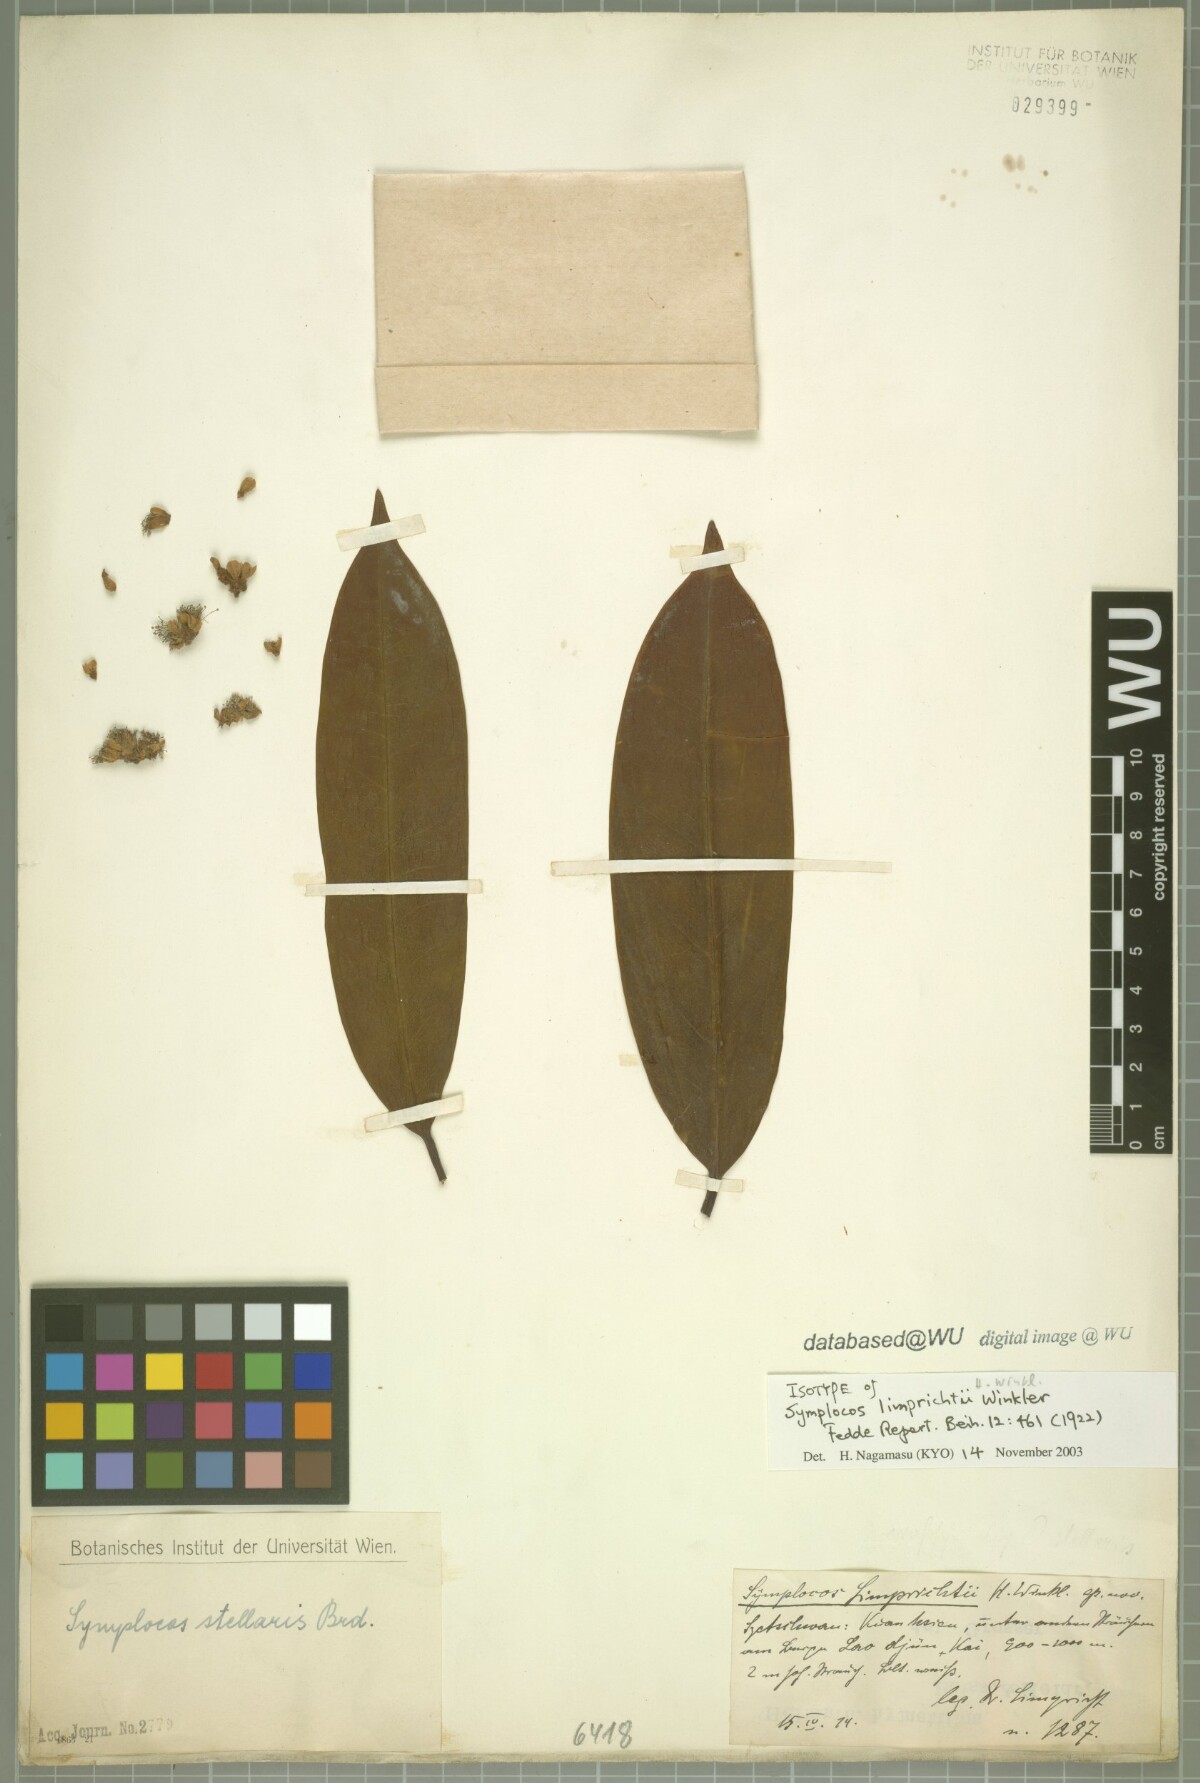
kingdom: Plantae
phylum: Tracheophyta
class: Magnoliopsida
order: Ericales
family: Symplocaceae
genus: Symplocos
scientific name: Symplocos stellaris
